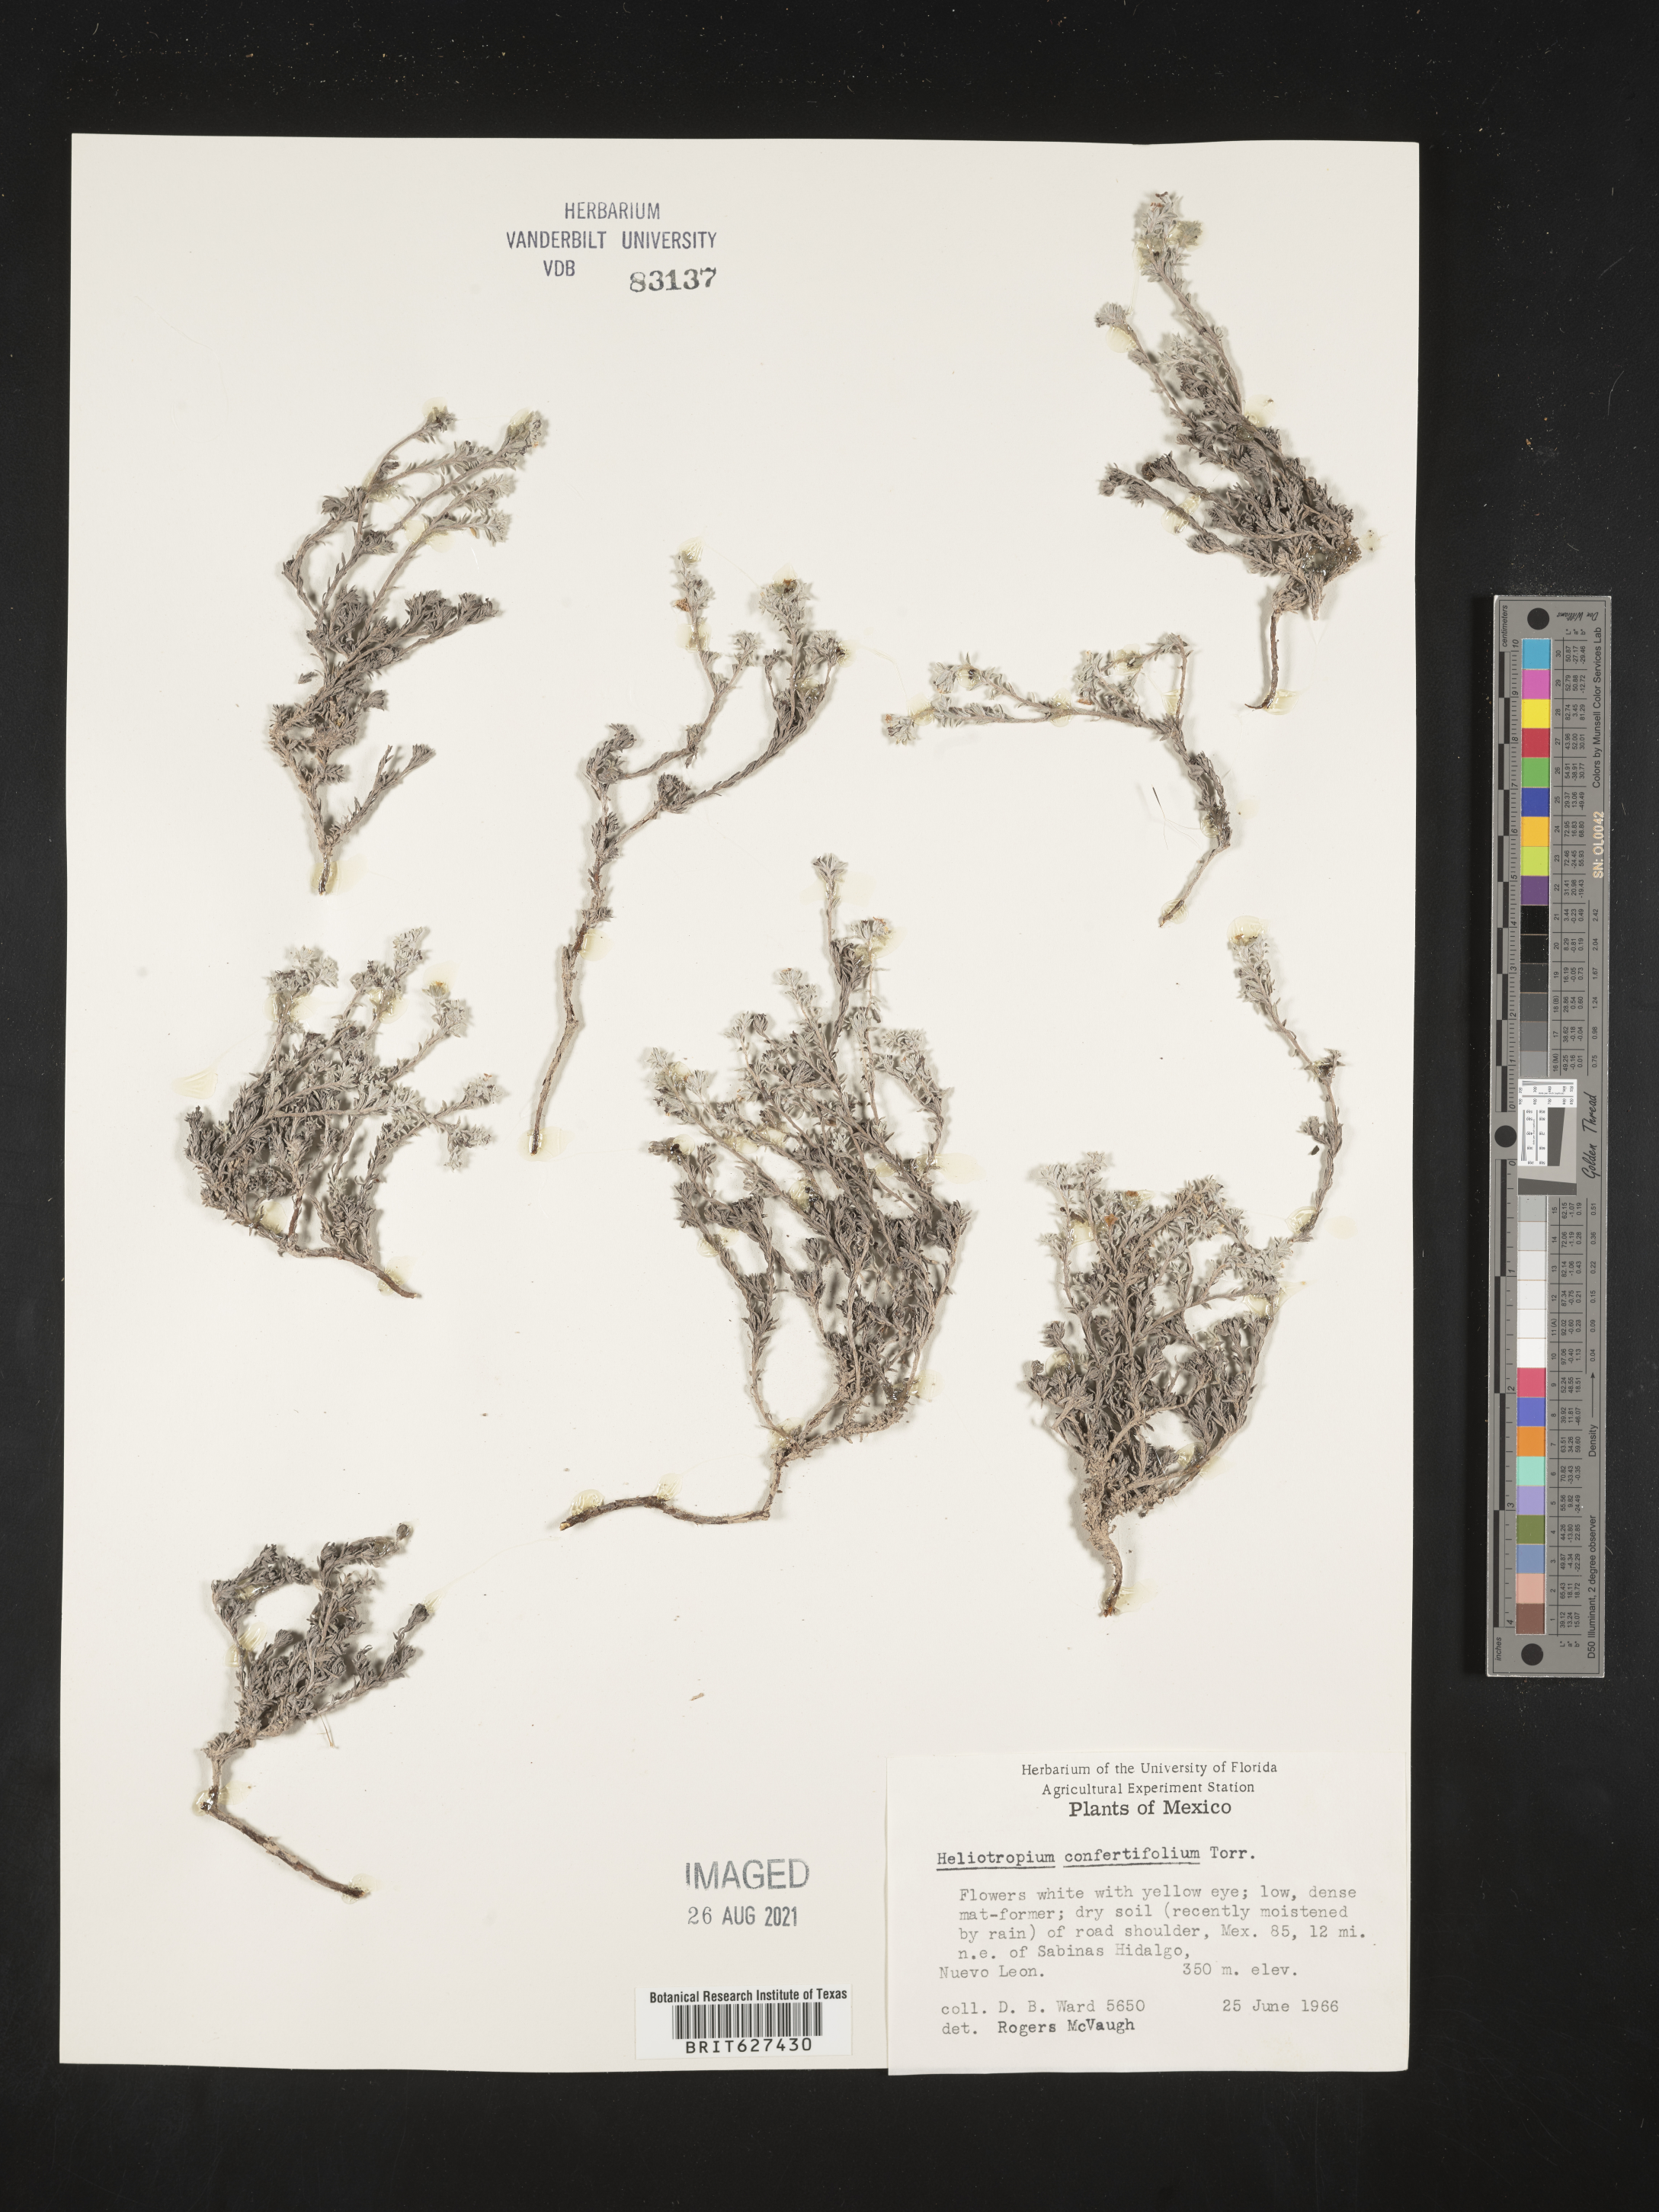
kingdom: Plantae
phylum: Tracheophyta
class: Magnoliopsida
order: Boraginales
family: Heliotropiaceae
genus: Heliotropium
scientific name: Heliotropium
